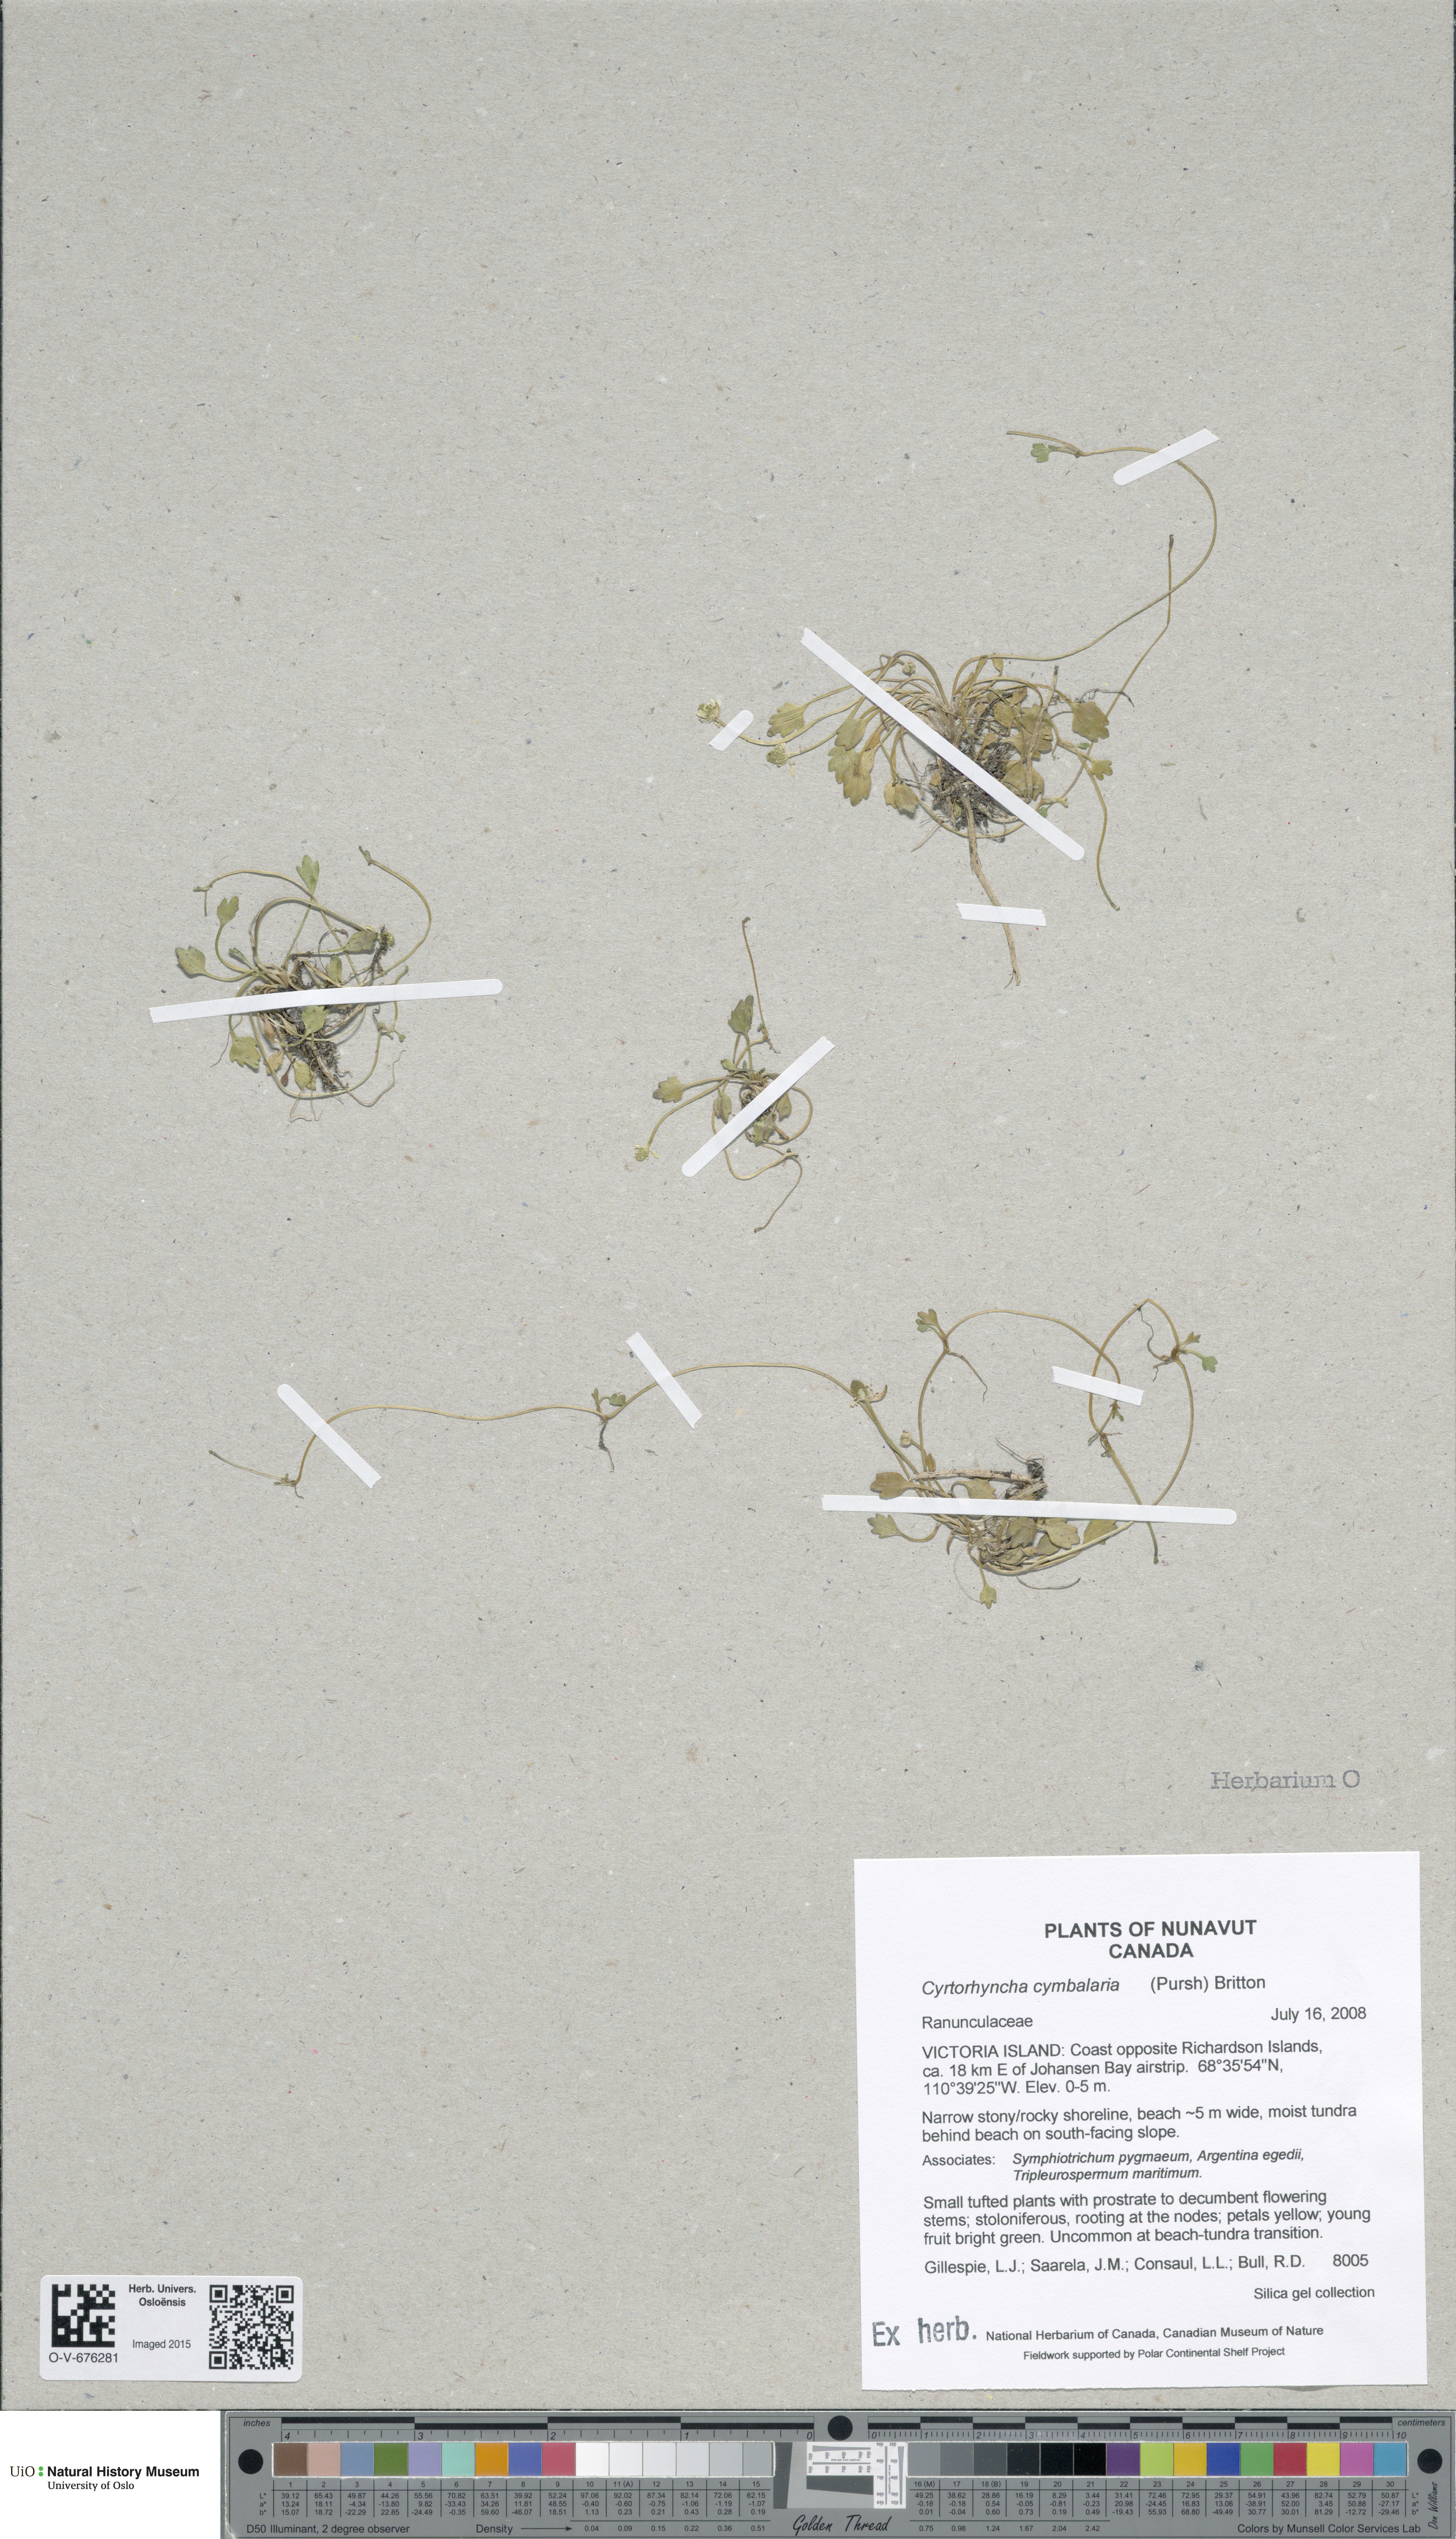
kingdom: Plantae
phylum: Tracheophyta
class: Magnoliopsida
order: Ranunculales
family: Ranunculaceae
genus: Halerpestes
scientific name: Halerpestes cymbalaria
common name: Seaside crowfoot
